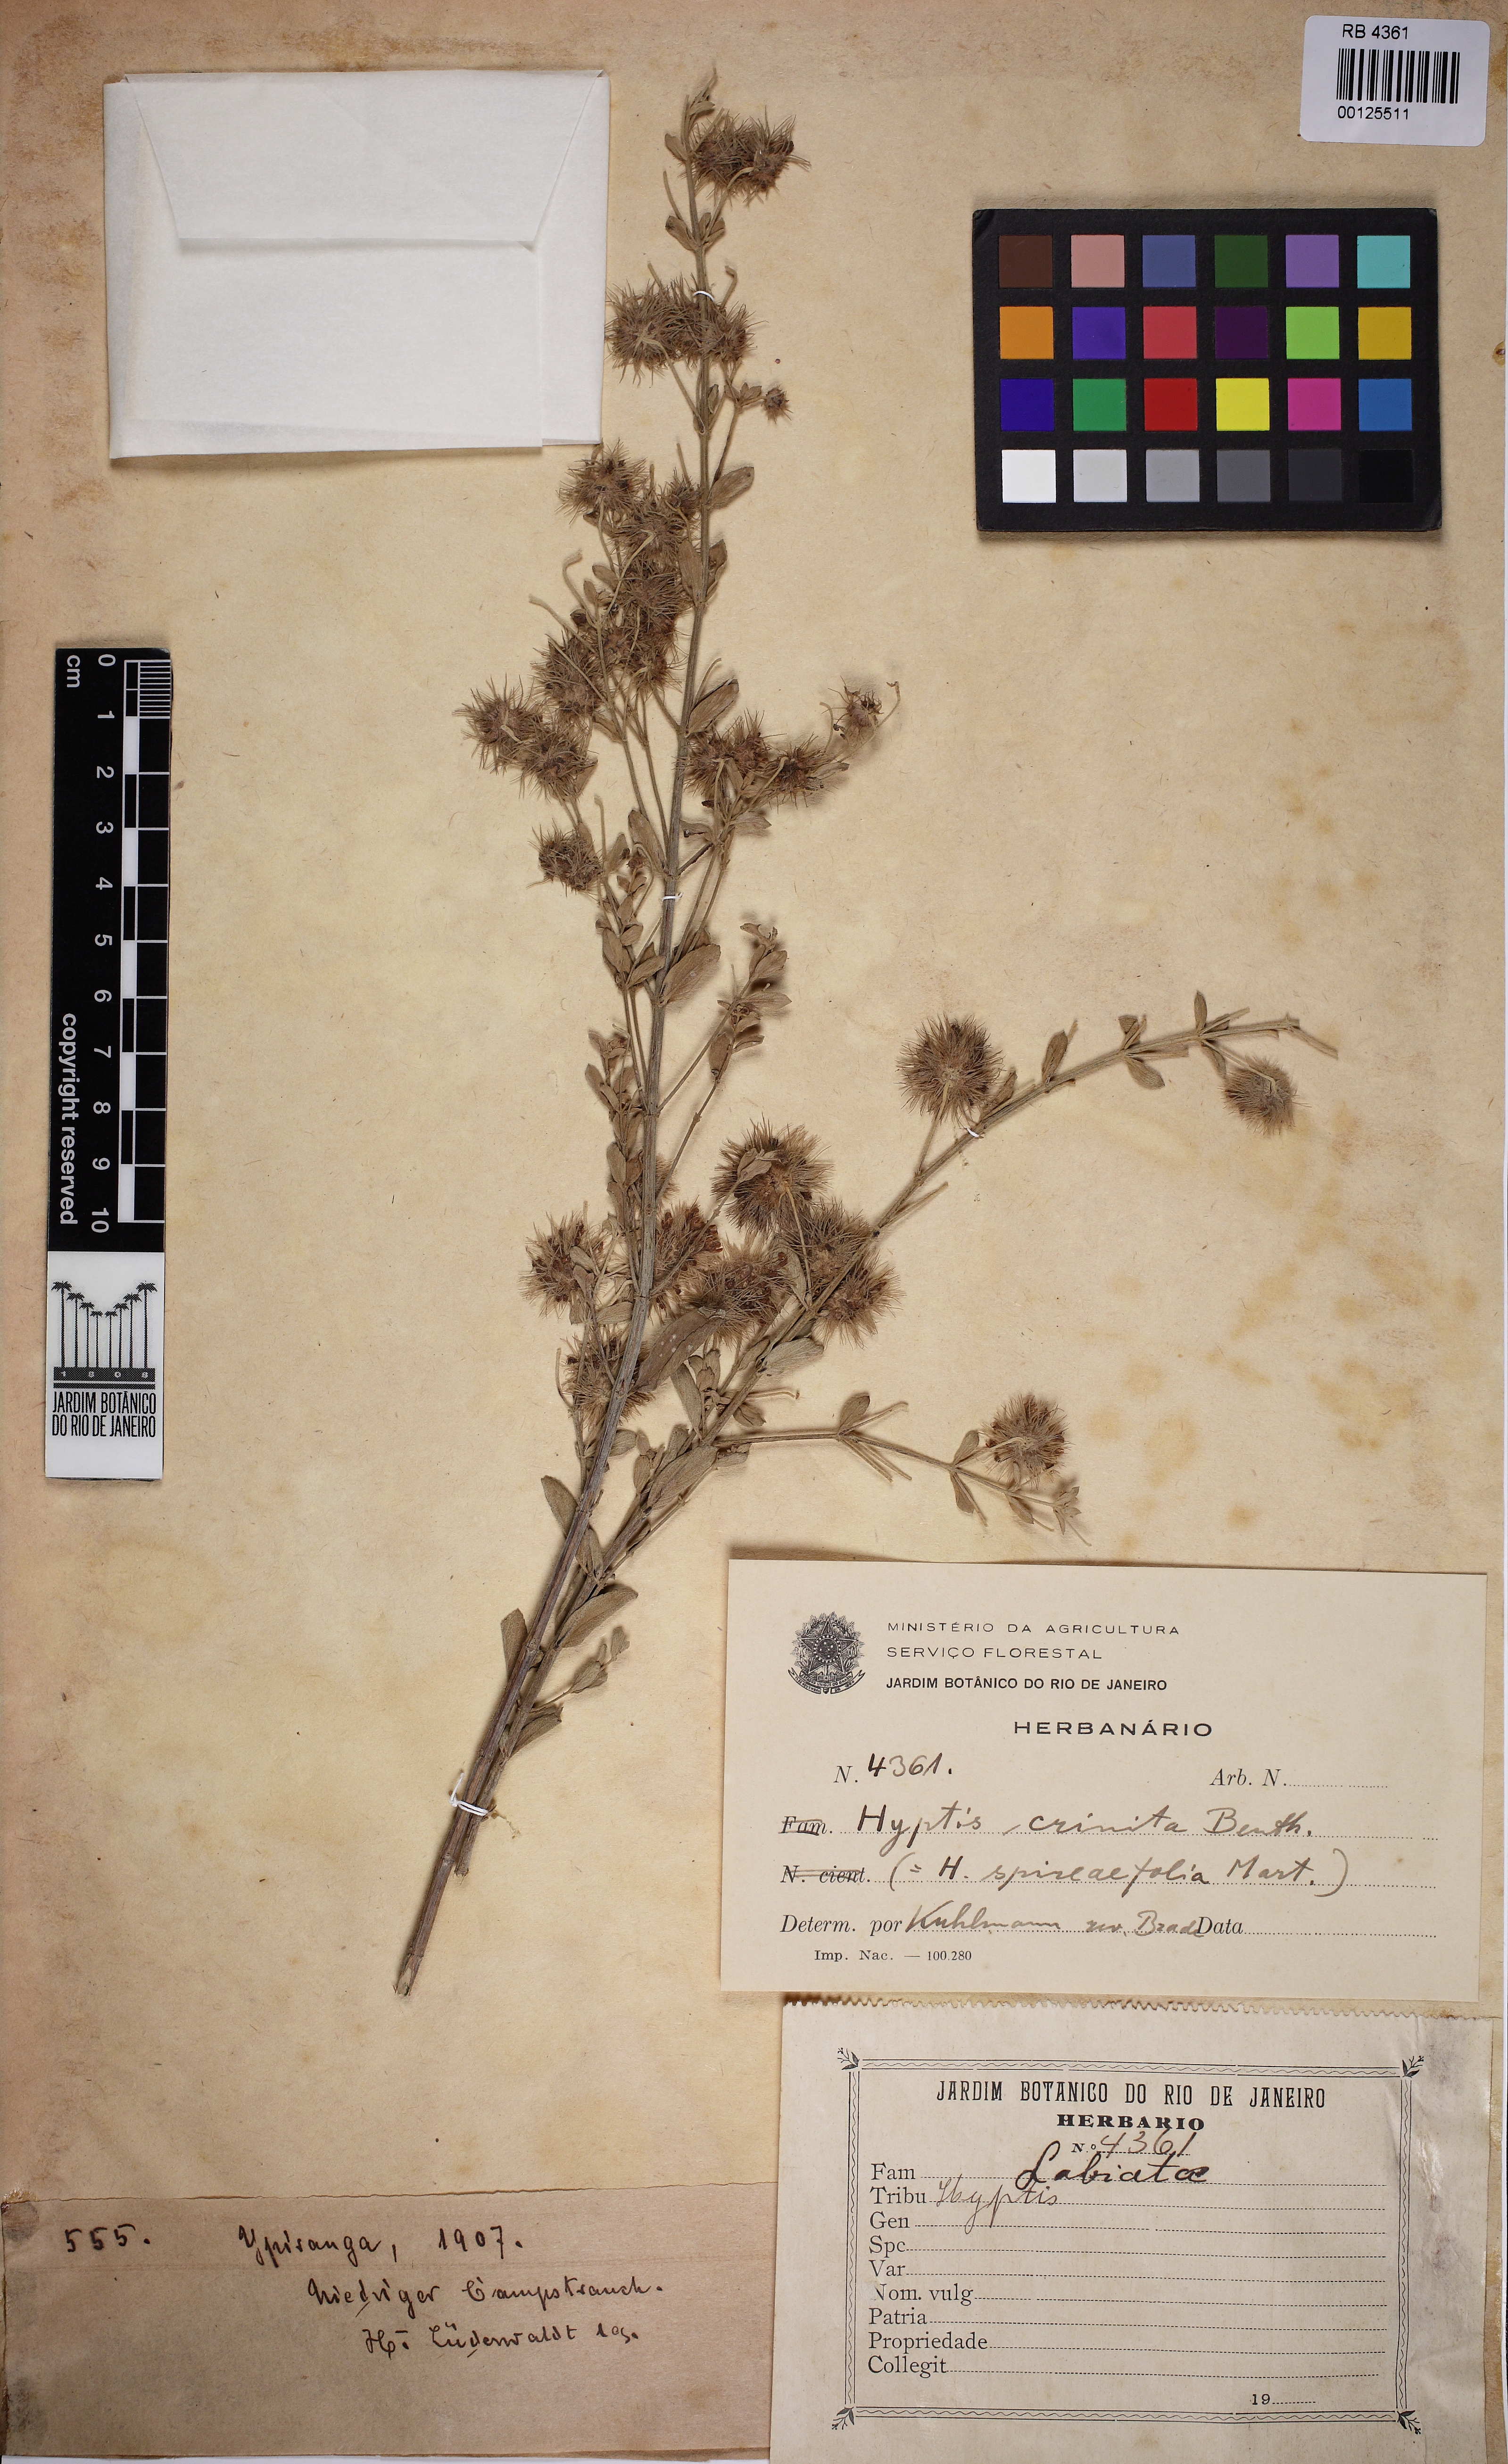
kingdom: Plantae
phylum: Tracheophyta
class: Magnoliopsida
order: Lamiales
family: Lamiaceae
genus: Medusantha
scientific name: Medusantha crinita
